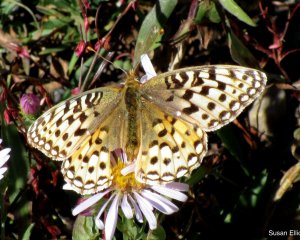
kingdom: Animalia
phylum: Arthropoda
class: Insecta
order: Lepidoptera
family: Nymphalidae
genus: Speyeria
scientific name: Speyeria coronis
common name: Coronis Fritillary
